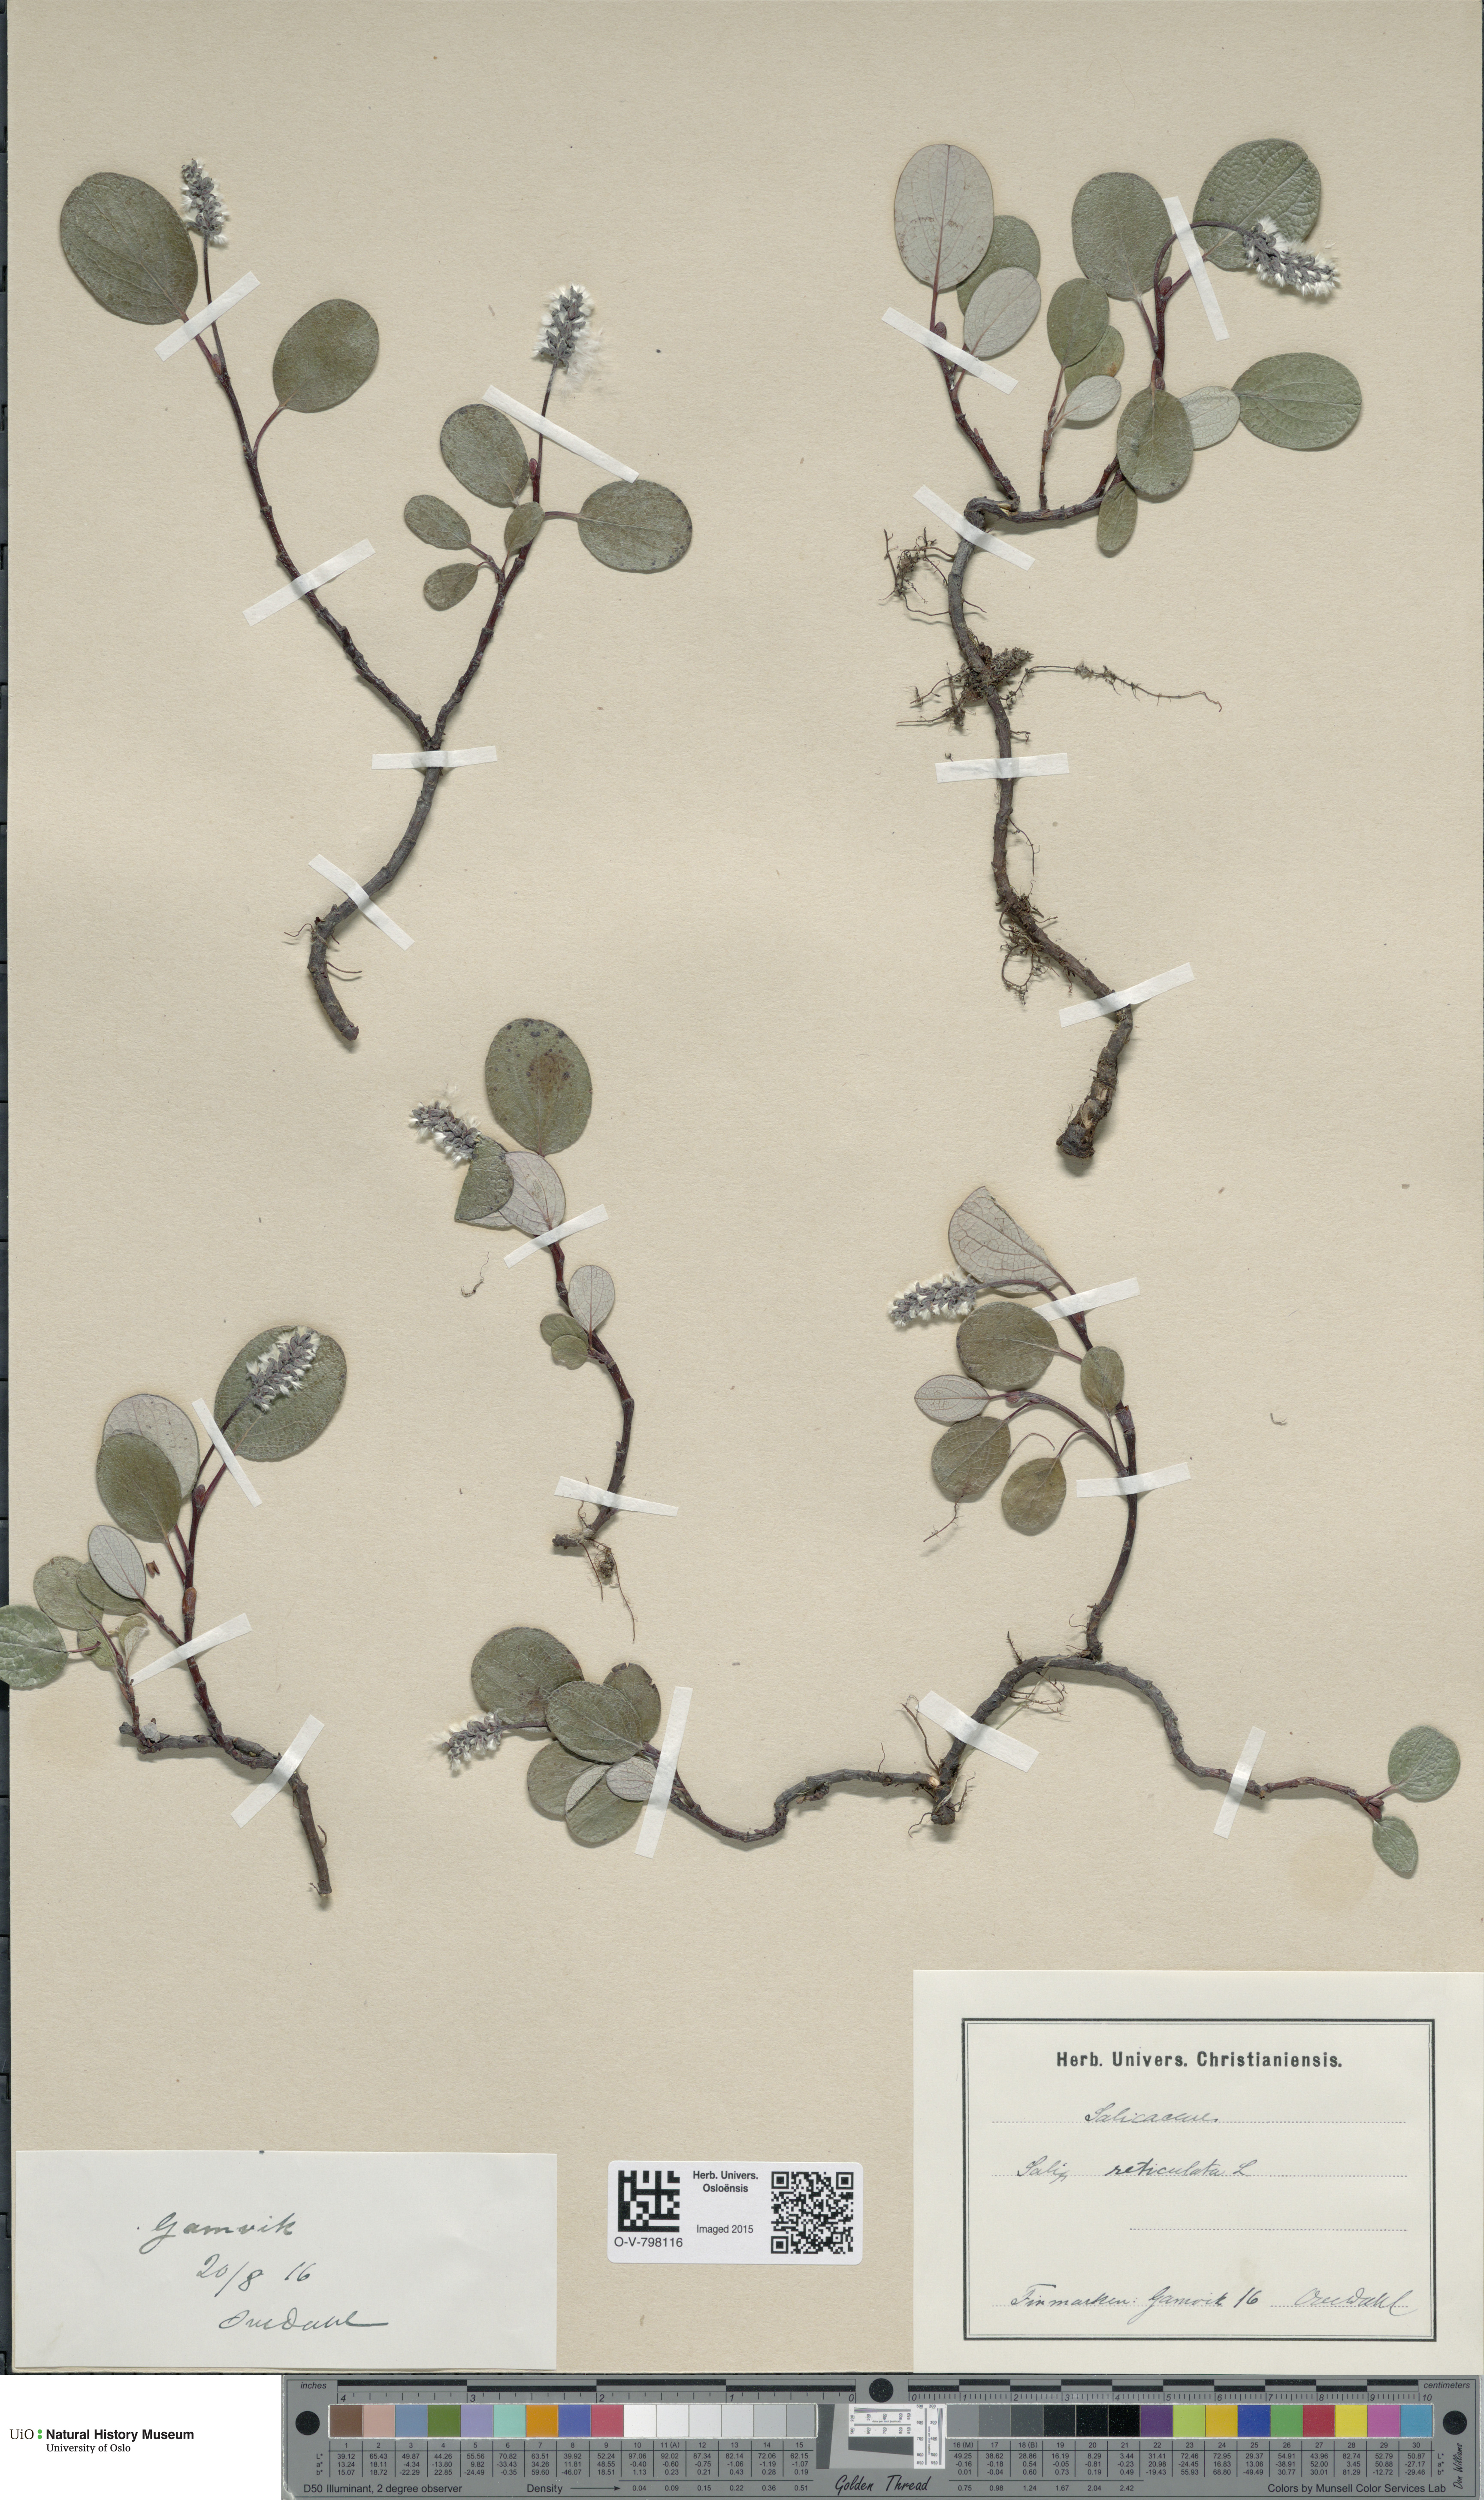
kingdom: Plantae
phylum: Tracheophyta
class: Magnoliopsida
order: Malpighiales
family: Salicaceae
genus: Salix
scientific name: Salix reticulata
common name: Net-leaved willow
